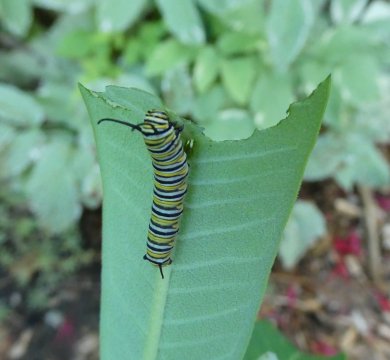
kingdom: Animalia
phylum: Arthropoda
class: Insecta
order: Lepidoptera
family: Nymphalidae
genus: Danaus
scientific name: Danaus plexippus
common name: Monarch
